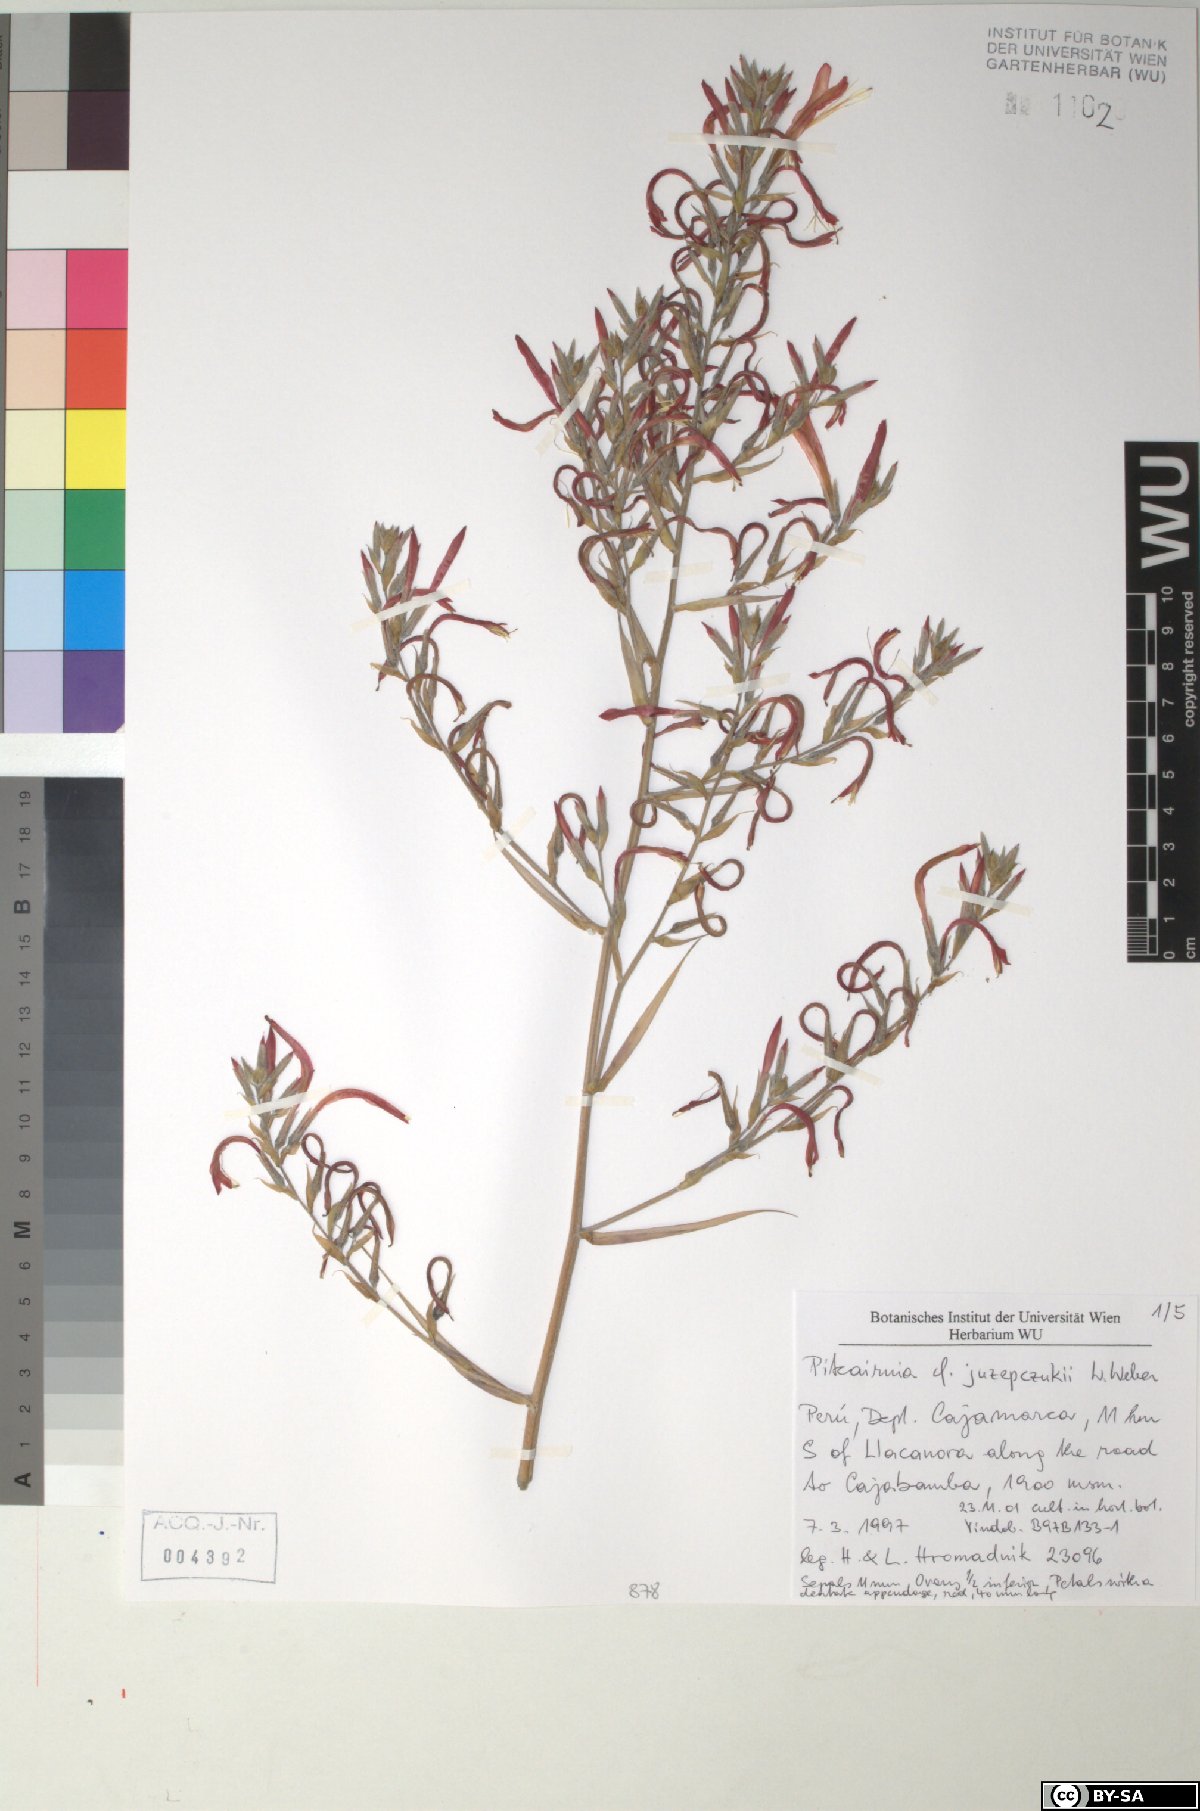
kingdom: Plantae
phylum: Tracheophyta
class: Liliopsida
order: Poales
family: Bromeliaceae
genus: Pitcairnia
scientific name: Pitcairnia juzepczukii
